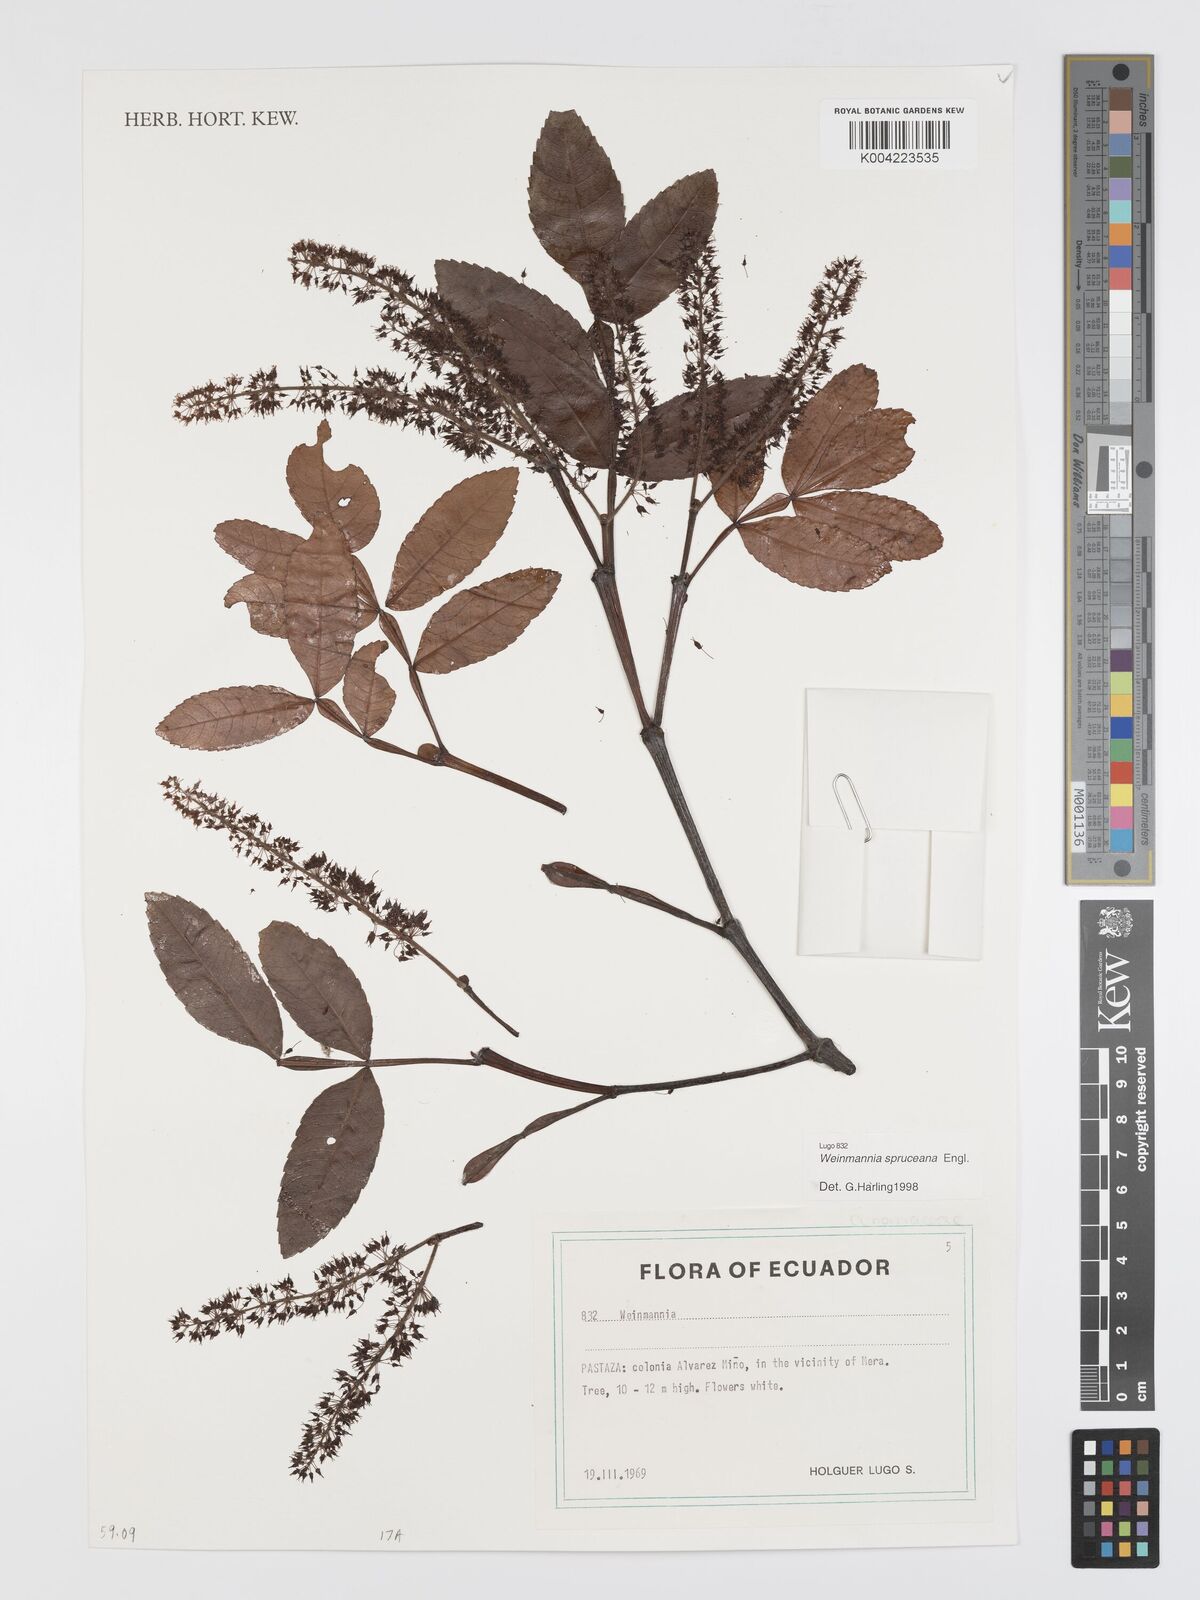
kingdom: Plantae
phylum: Tracheophyta
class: Magnoliopsida
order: Oxalidales
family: Cunoniaceae
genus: Weinmannia
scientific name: Weinmannia spruceana
